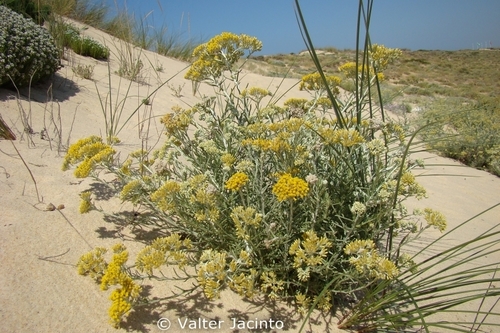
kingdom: Plantae
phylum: Tracheophyta
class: Magnoliopsida
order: Asterales
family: Asteraceae
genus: Helichrysum
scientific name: Helichrysum italicum
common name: Curryplant
